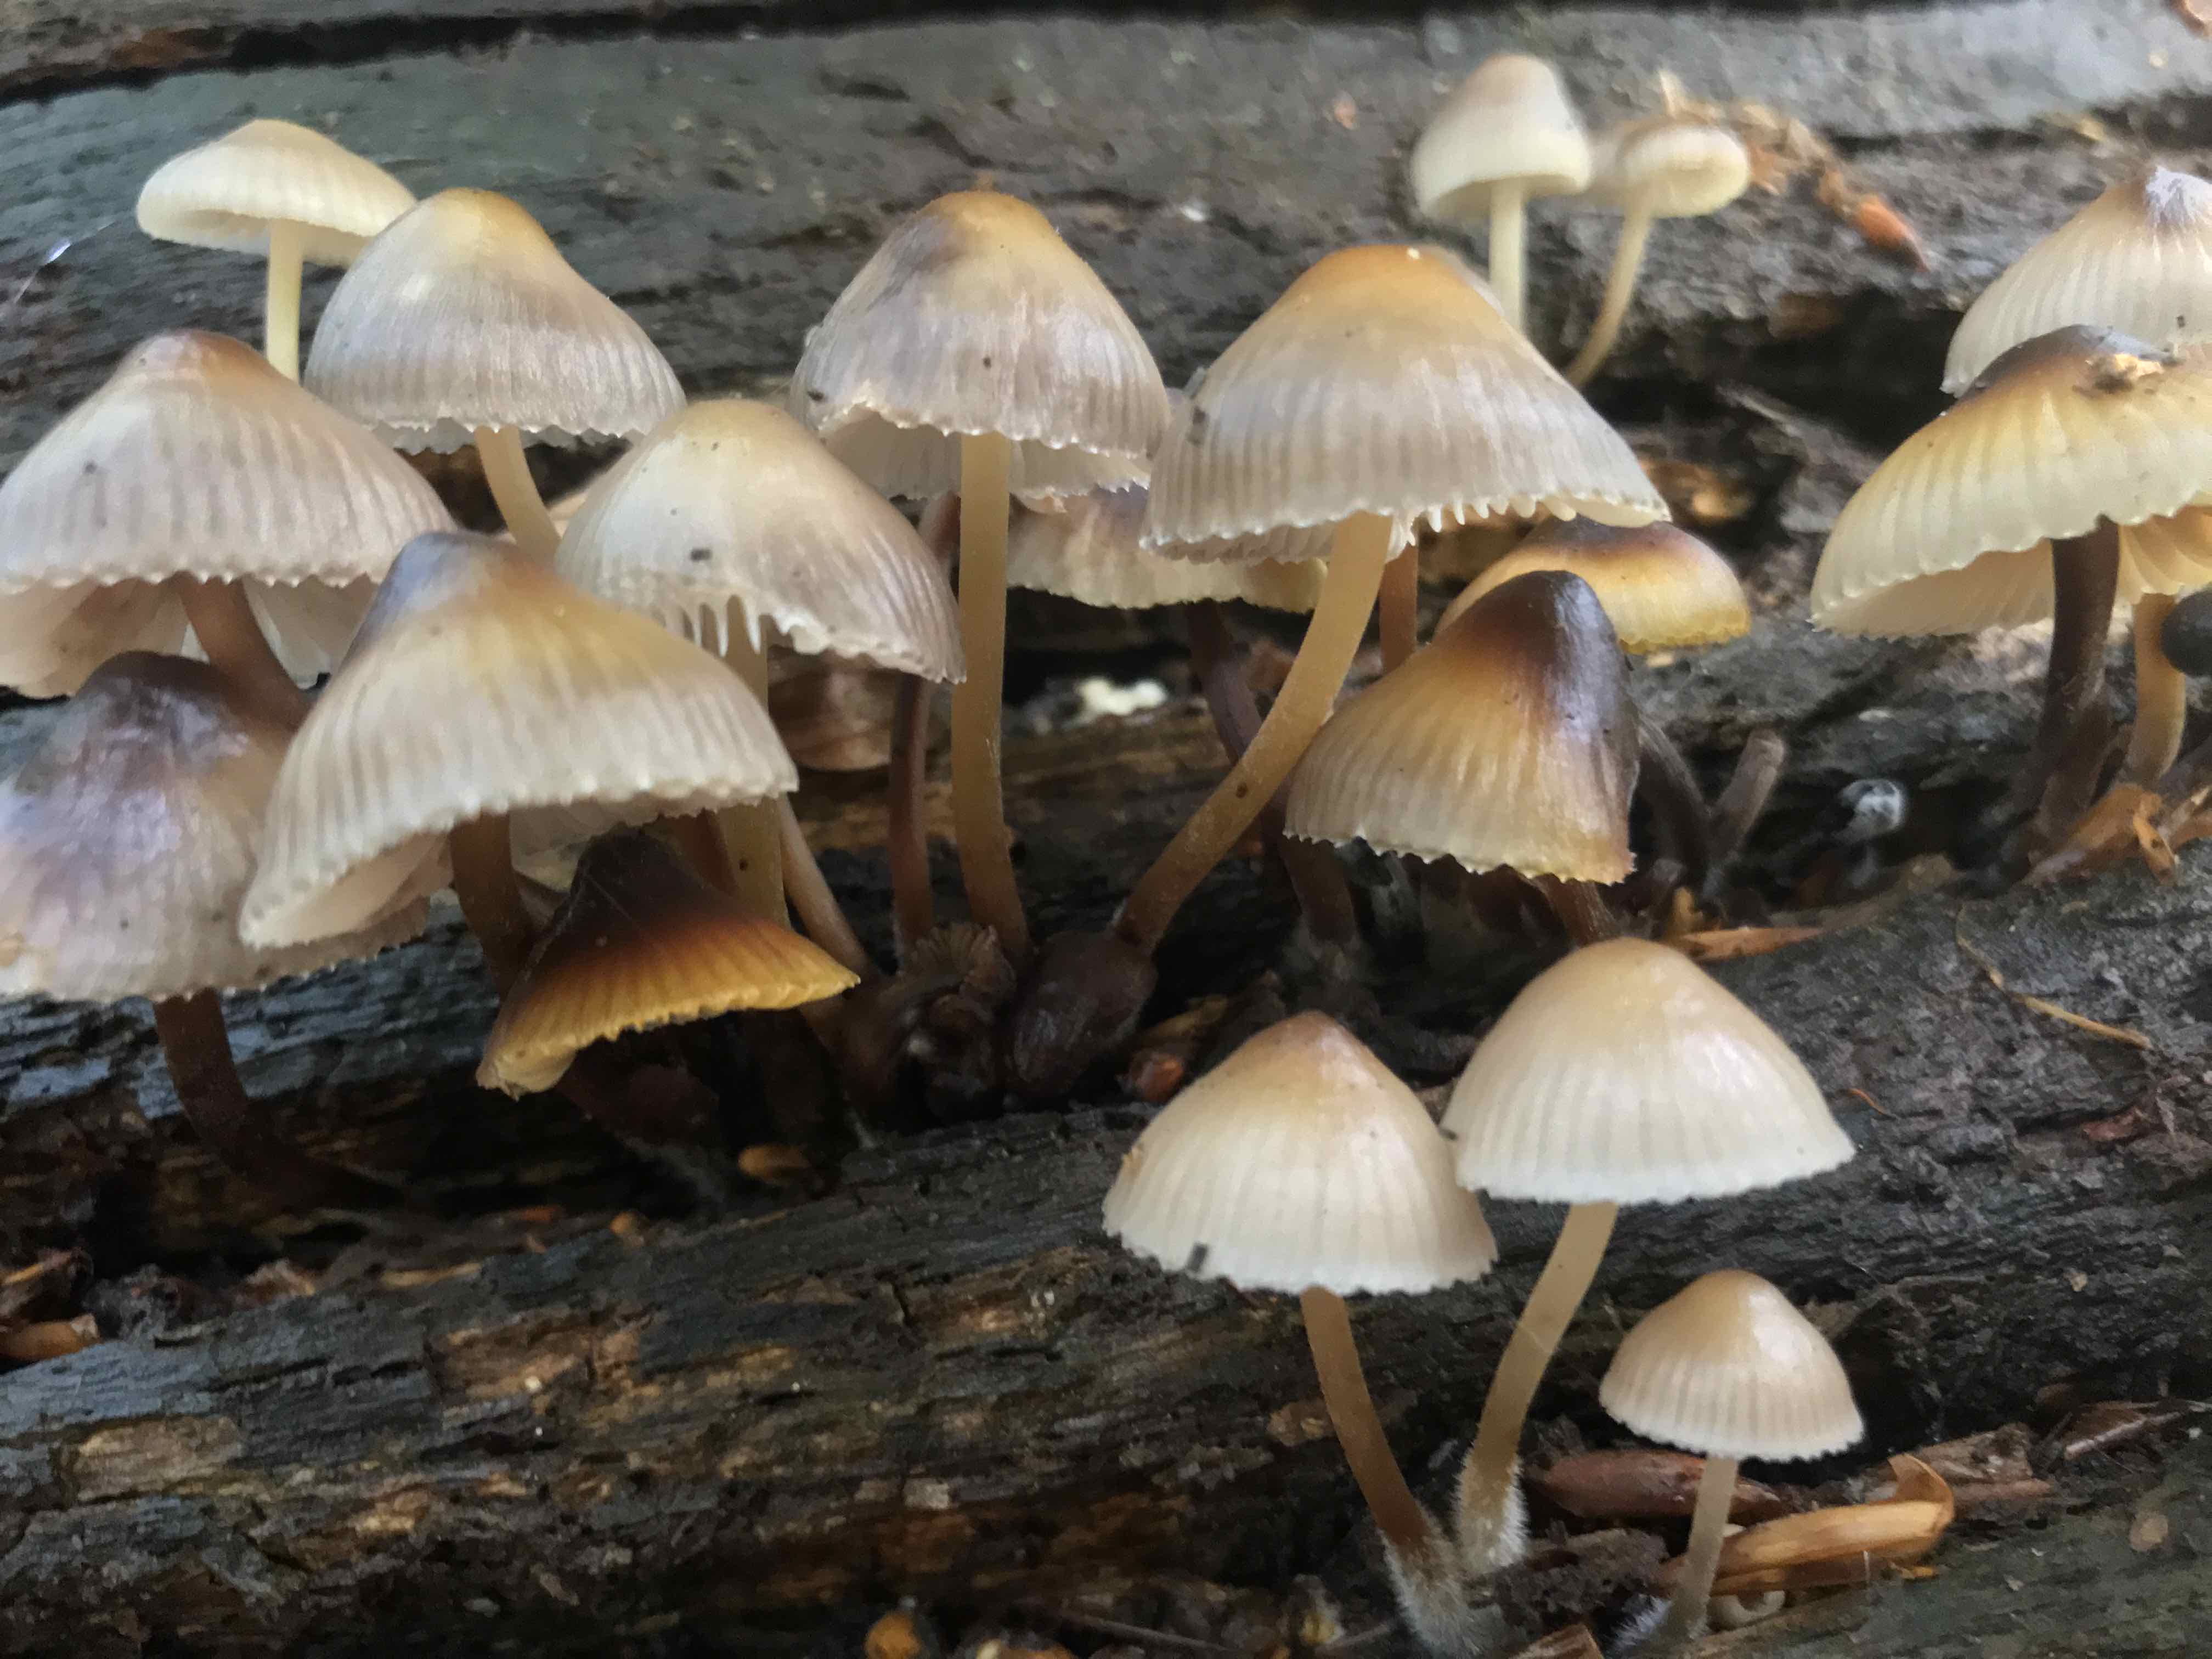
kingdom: Fungi
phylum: Basidiomycota
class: Agaricomycetes
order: Agaricales
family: Mycenaceae
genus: Mycena
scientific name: Mycena inclinata
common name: nikkende huesvamp
